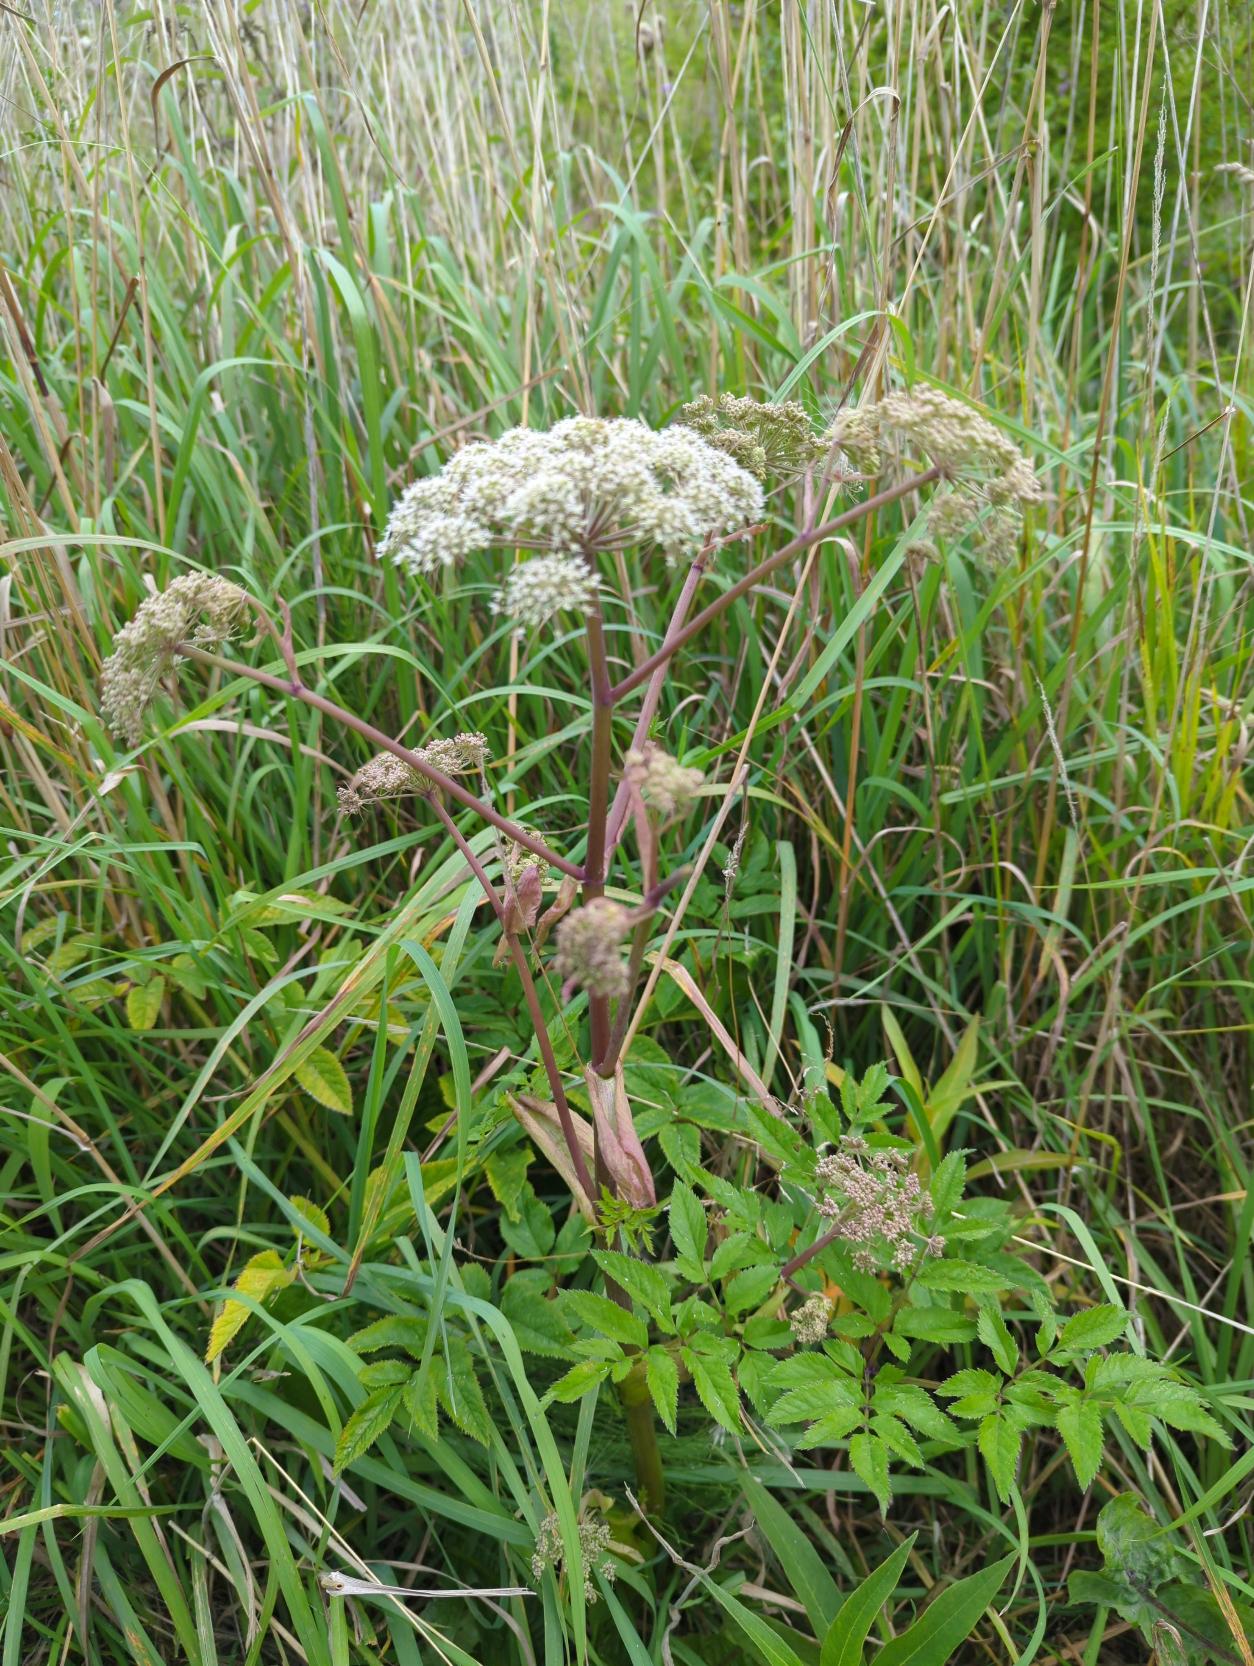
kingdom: Plantae
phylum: Tracheophyta
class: Magnoliopsida
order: Apiales
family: Apiaceae
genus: Angelica
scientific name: Angelica sylvestris
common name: Angelik
